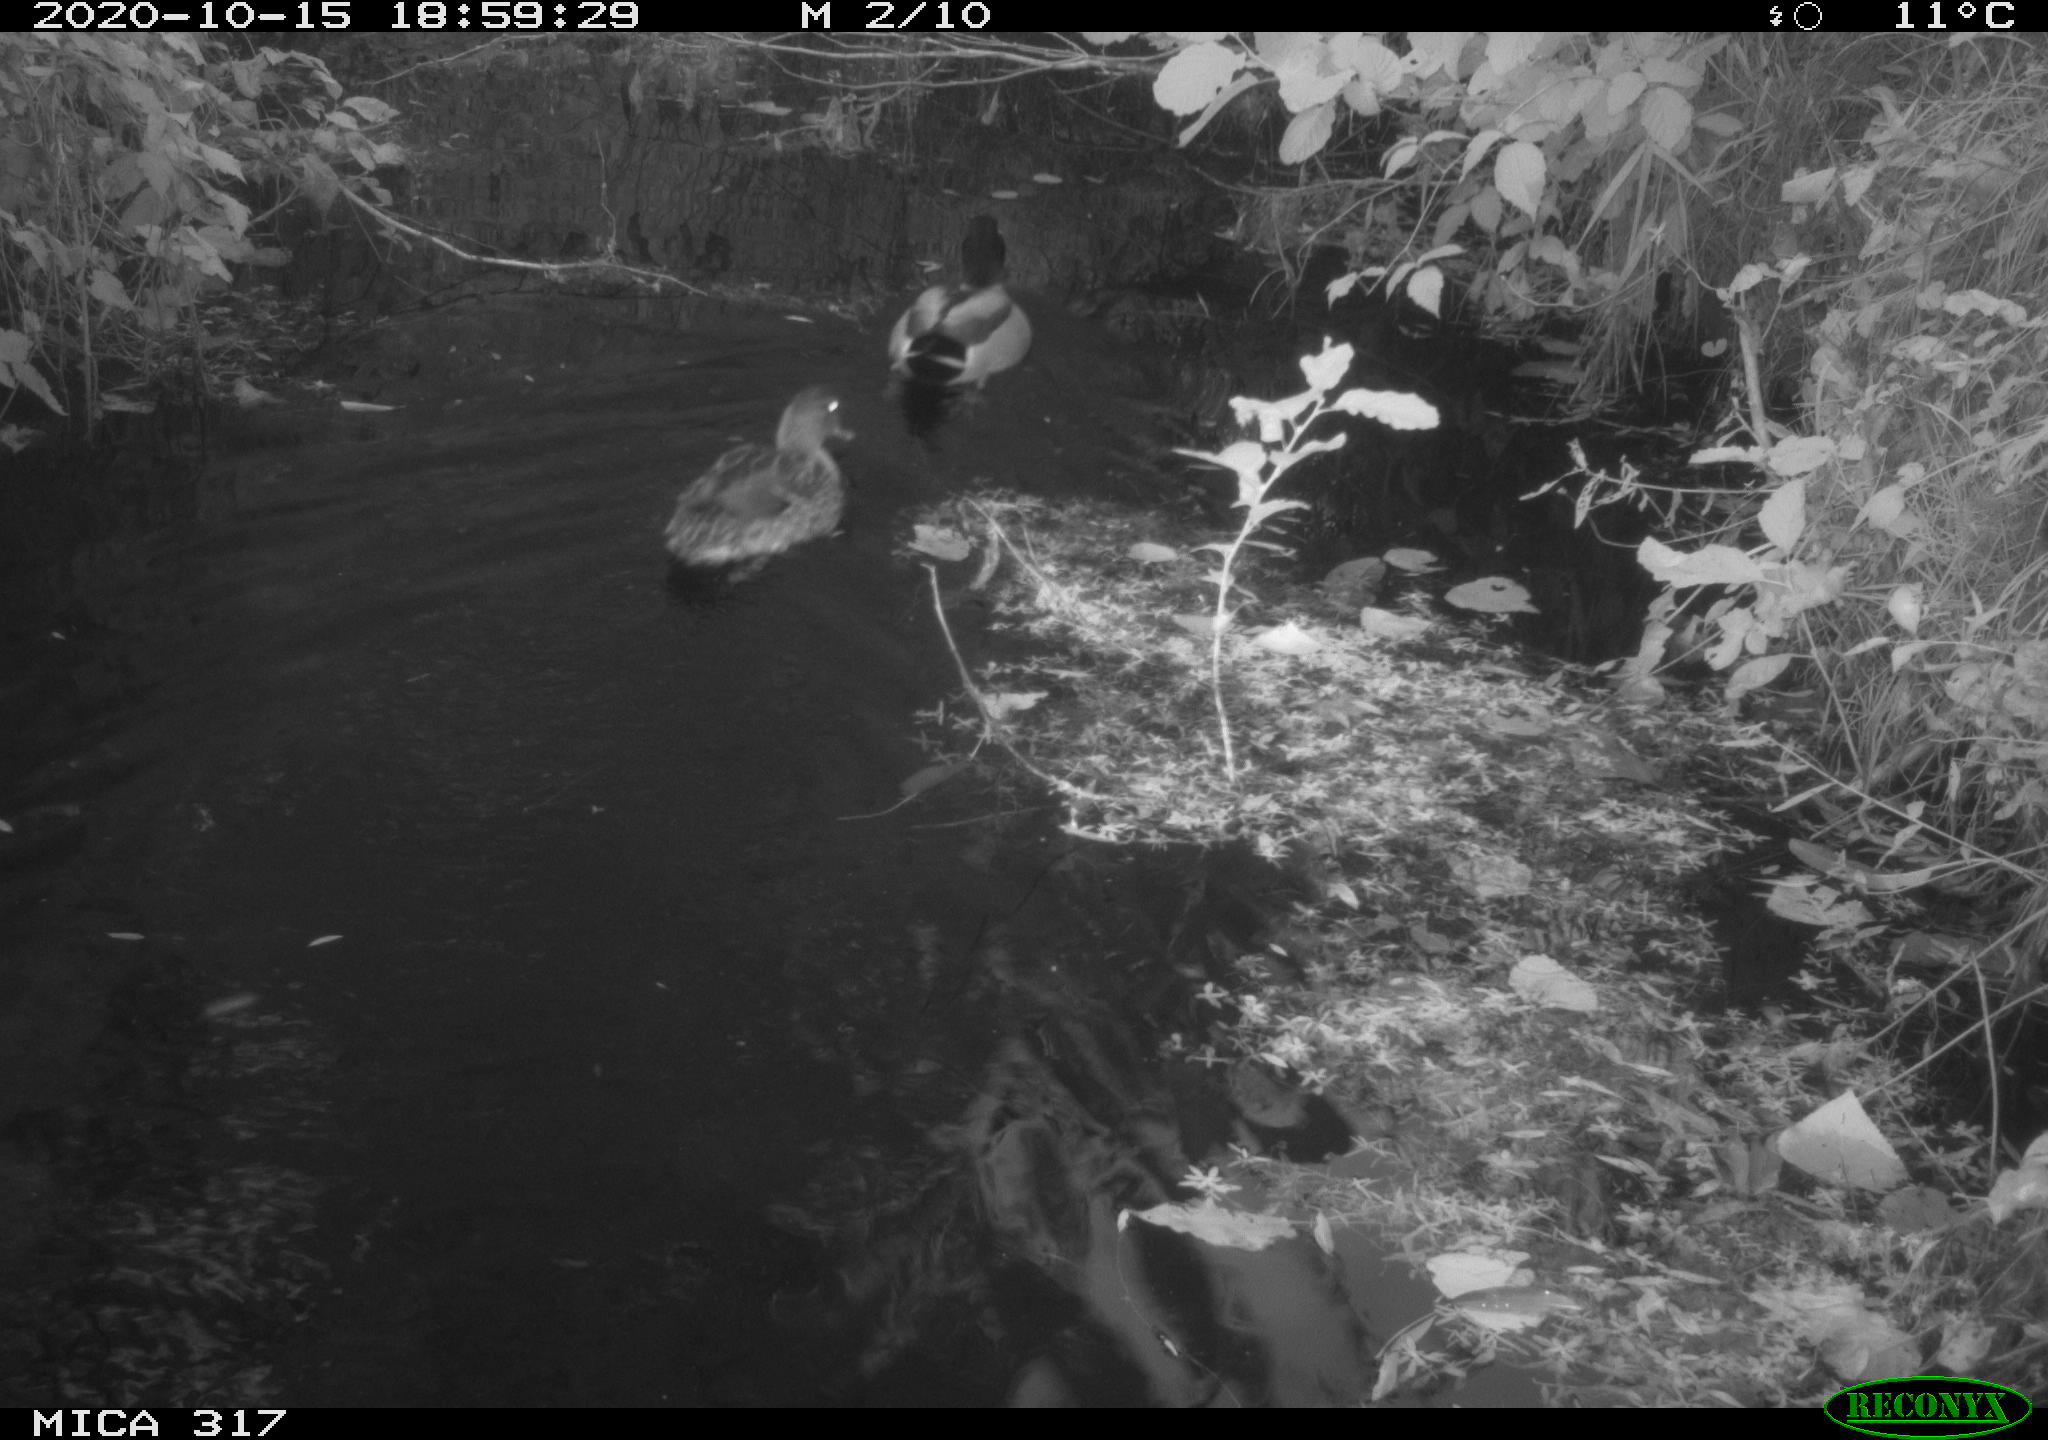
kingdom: Animalia
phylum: Chordata
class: Aves
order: Anseriformes
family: Anatidae
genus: Anas
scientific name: Anas platyrhynchos
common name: Mallard
